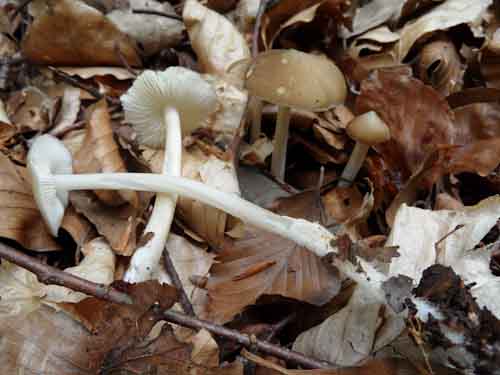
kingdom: Fungi
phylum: Basidiomycota
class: Agaricomycetes
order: Agaricales
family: Porotheleaceae
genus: Hydropodia
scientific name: Hydropodia subalpina
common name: vår-fnugfod
